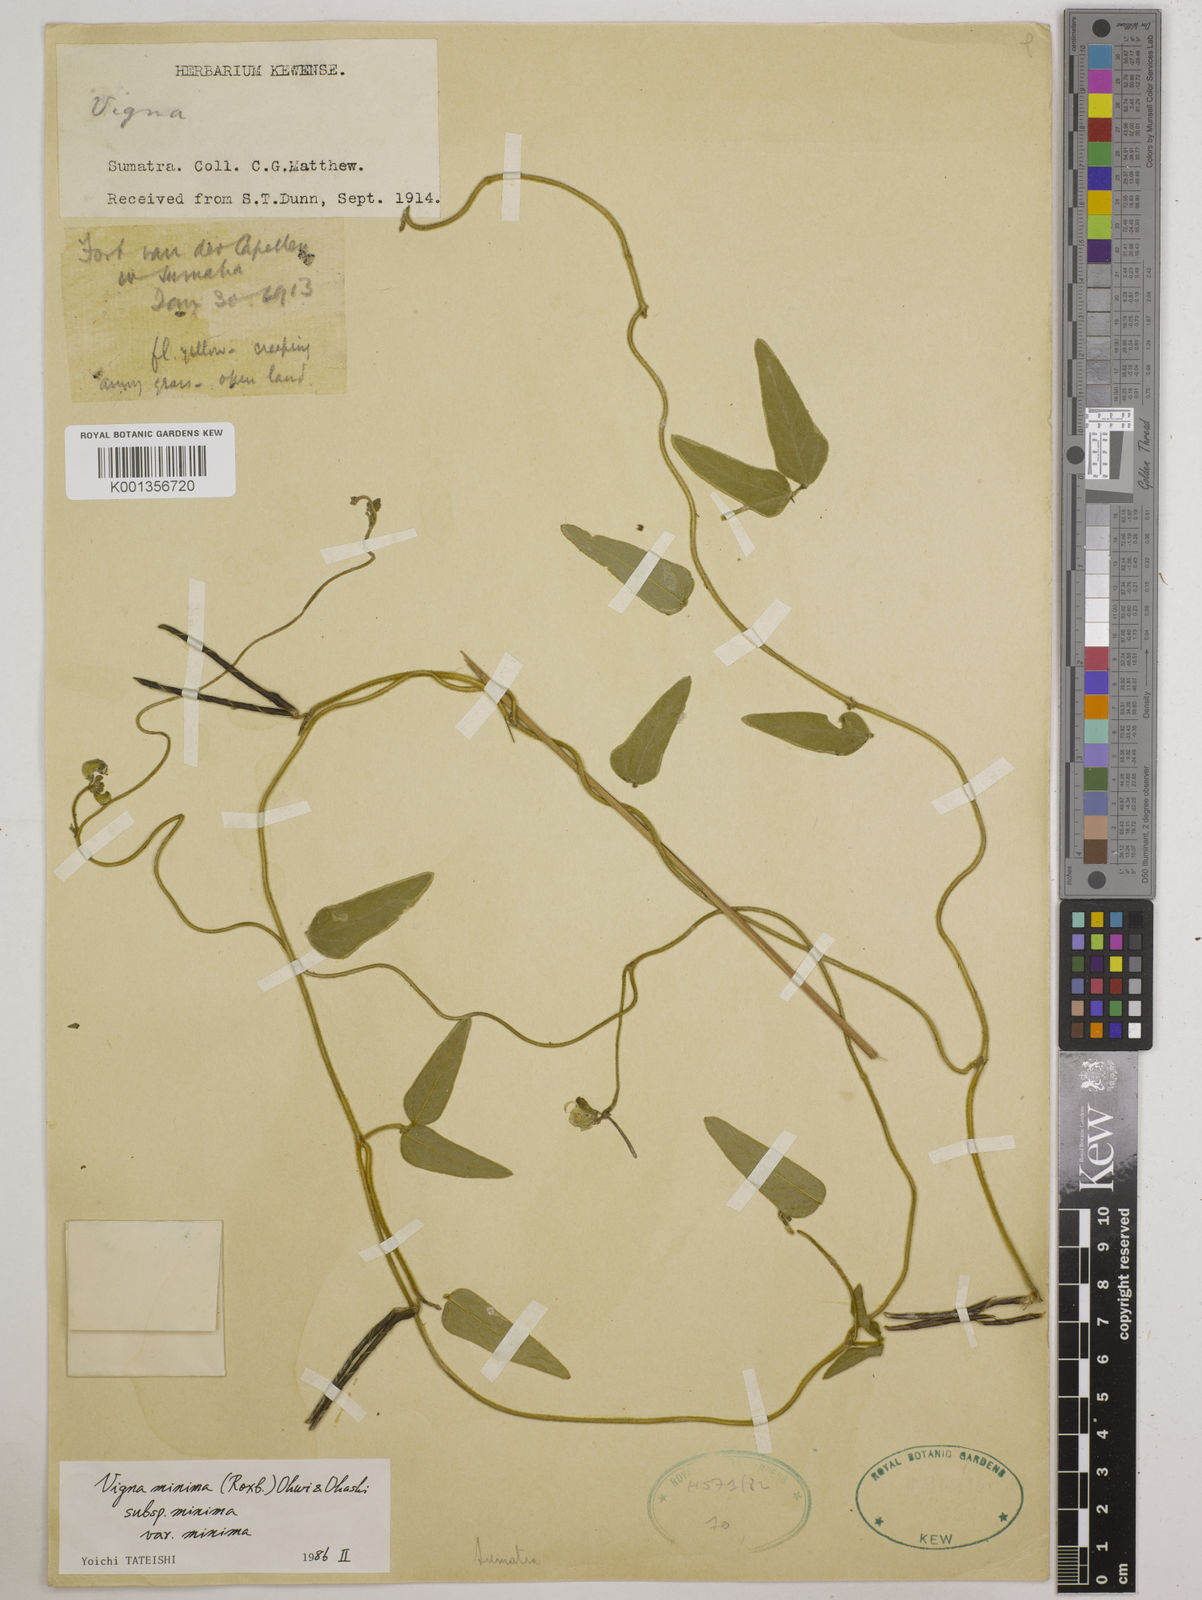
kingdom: Plantae
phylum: Tracheophyta
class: Magnoliopsida
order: Fabales
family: Fabaceae
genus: Vigna
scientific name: Vigna
